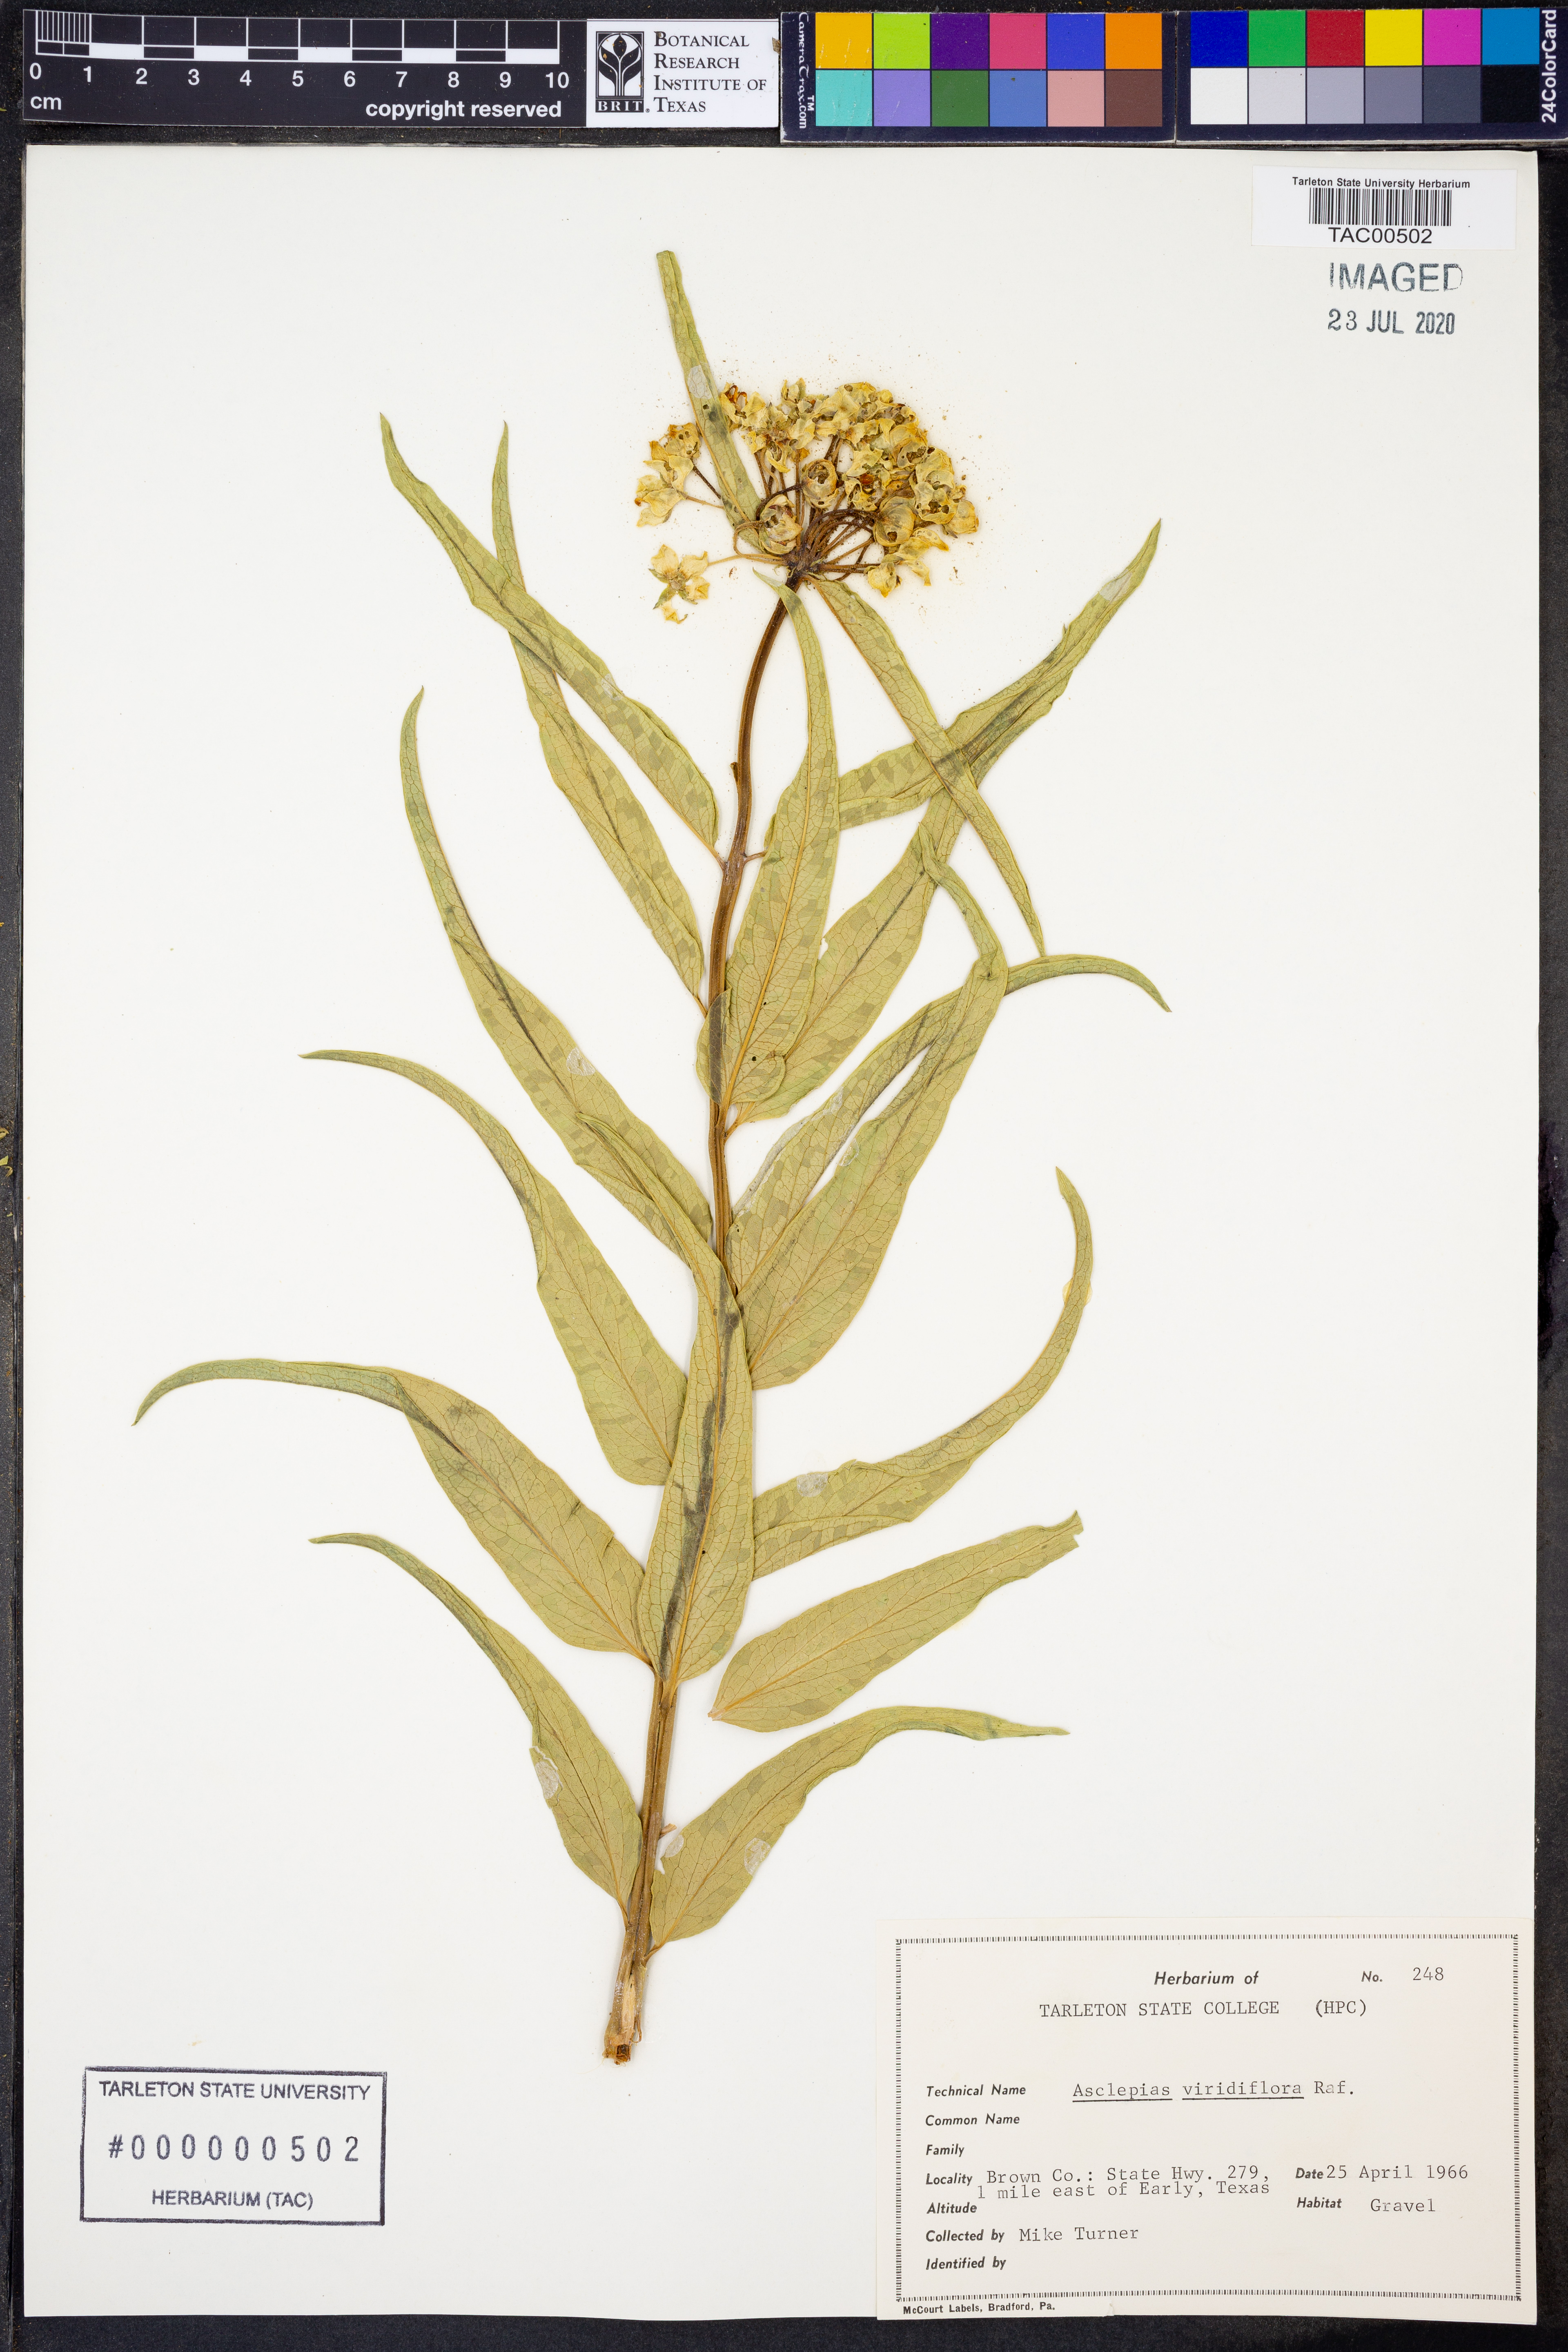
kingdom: Plantae
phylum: Tracheophyta
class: Magnoliopsida
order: Gentianales
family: Apocynaceae
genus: Asclepias
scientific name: Asclepias viridiflora
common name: Green comet milkweed
